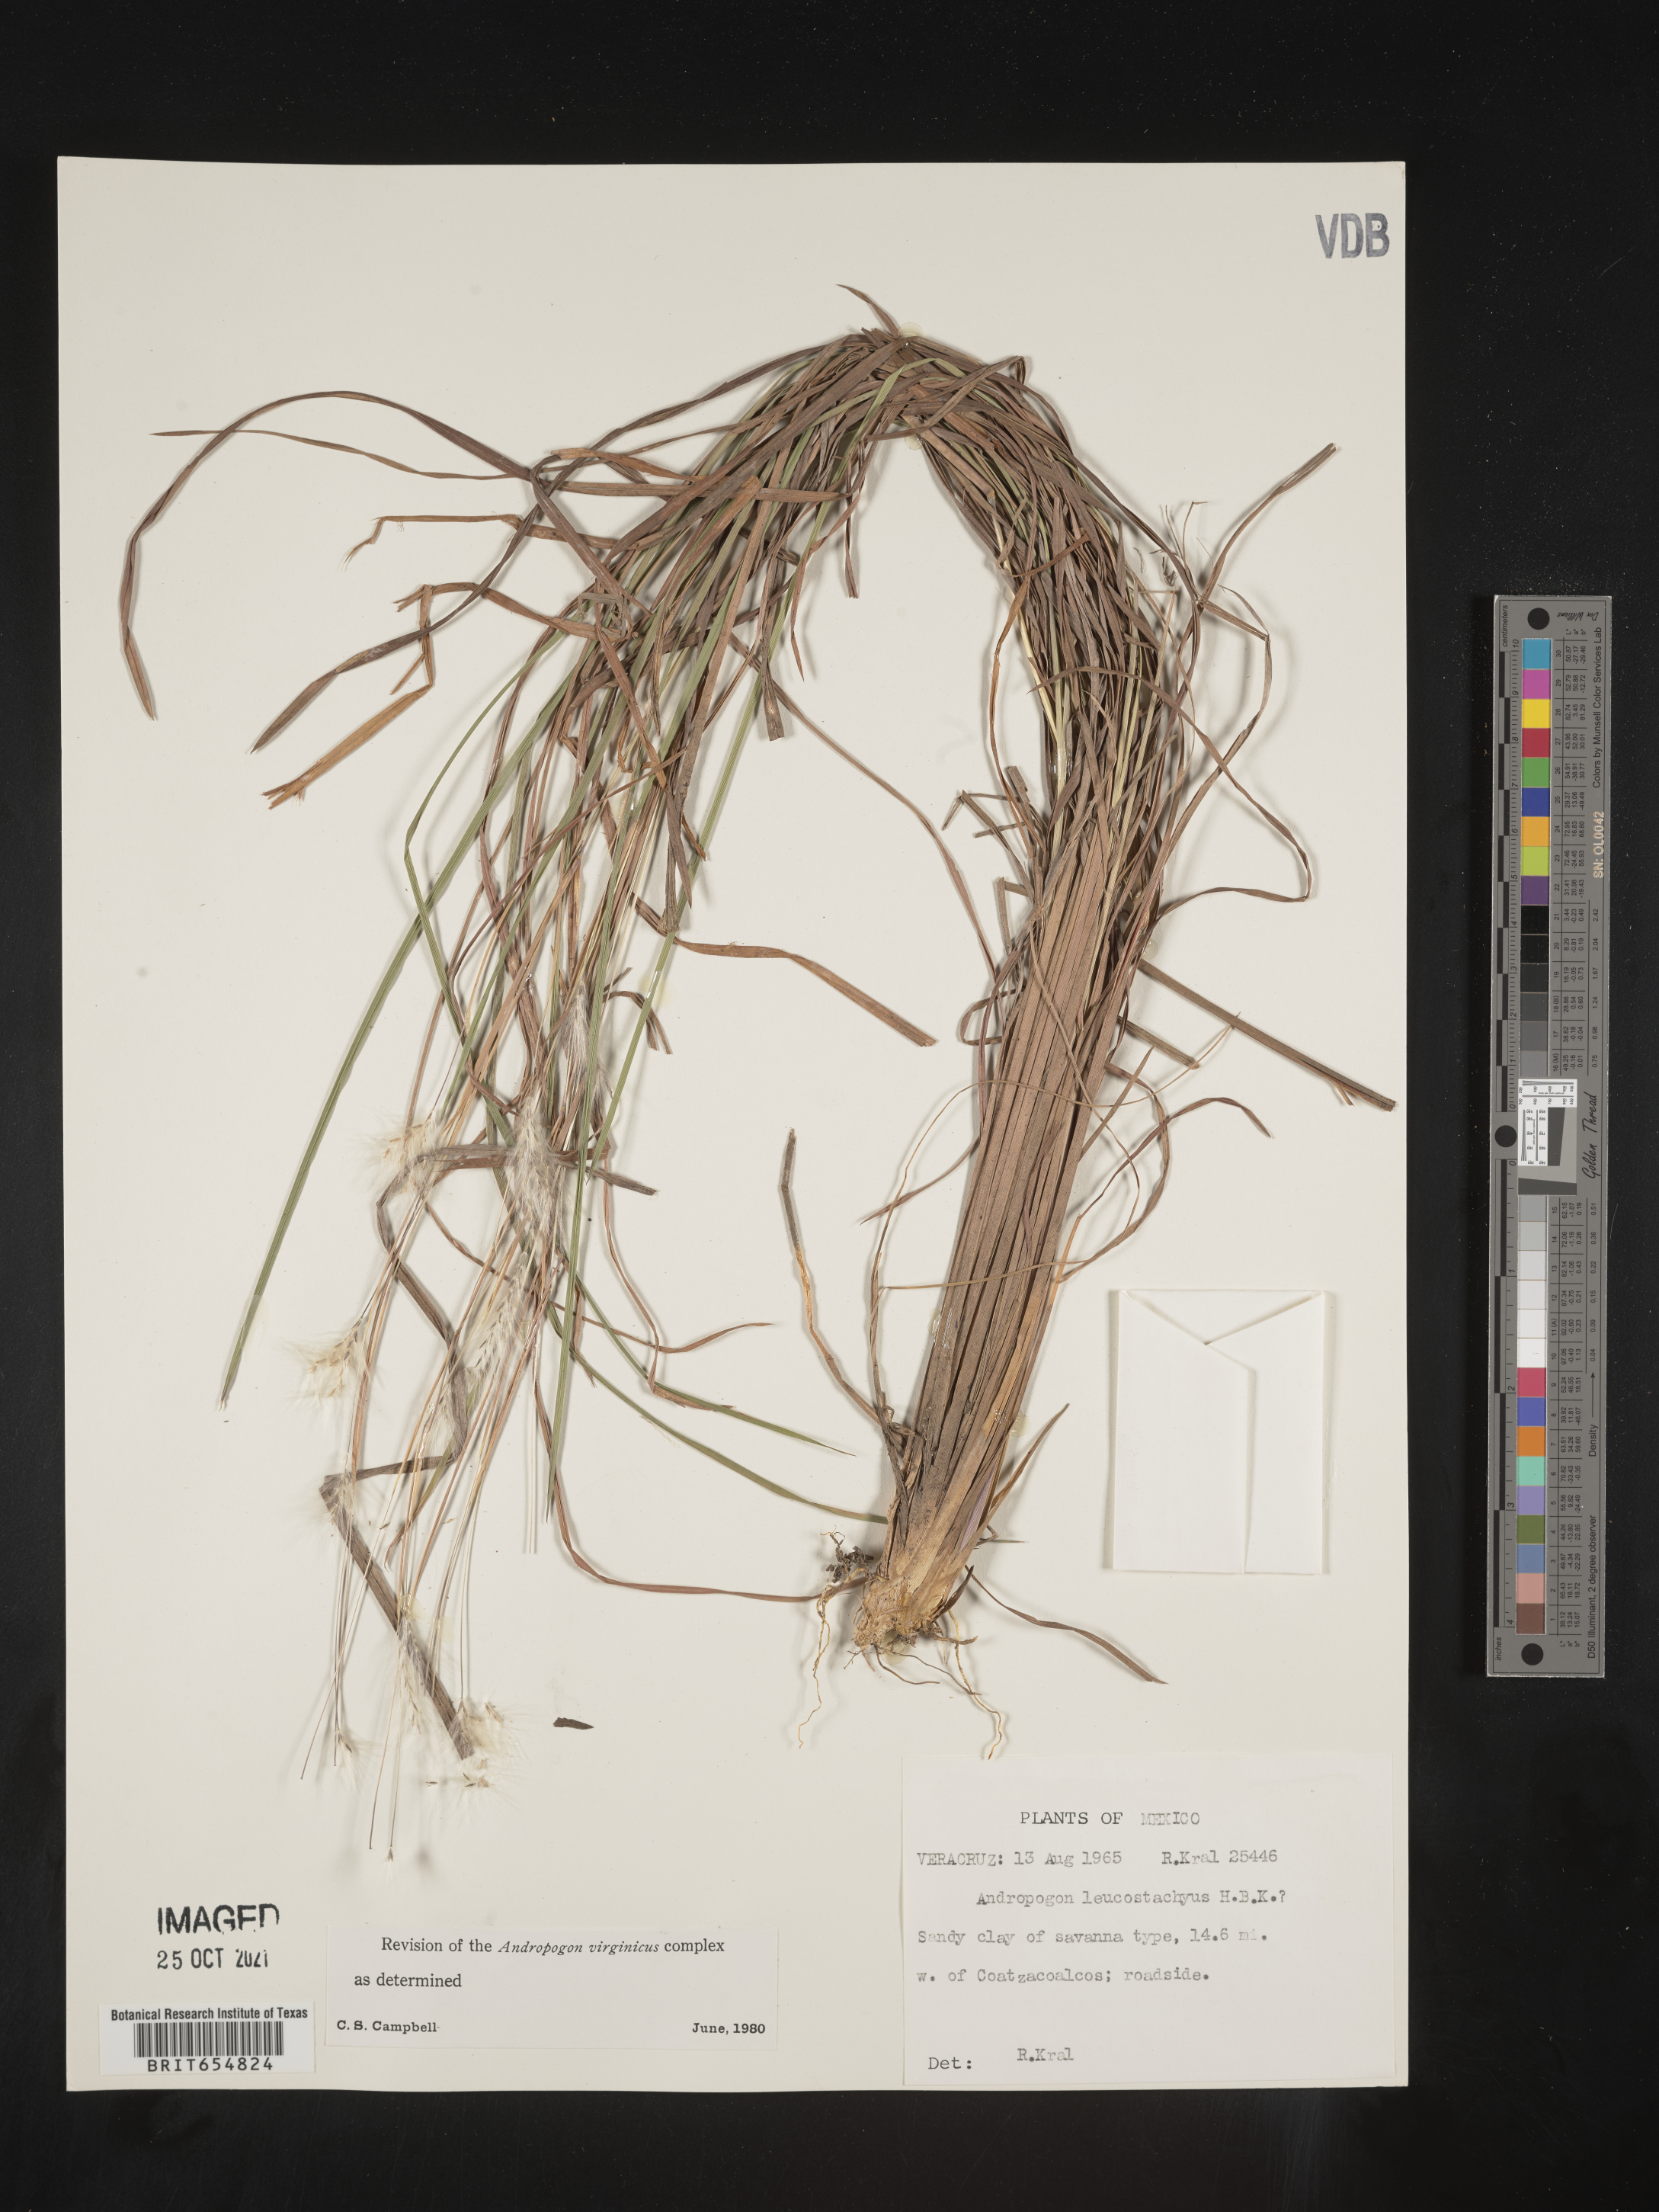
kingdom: Plantae
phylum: Tracheophyta
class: Liliopsida
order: Poales
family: Poaceae
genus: Andropogon
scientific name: Andropogon
